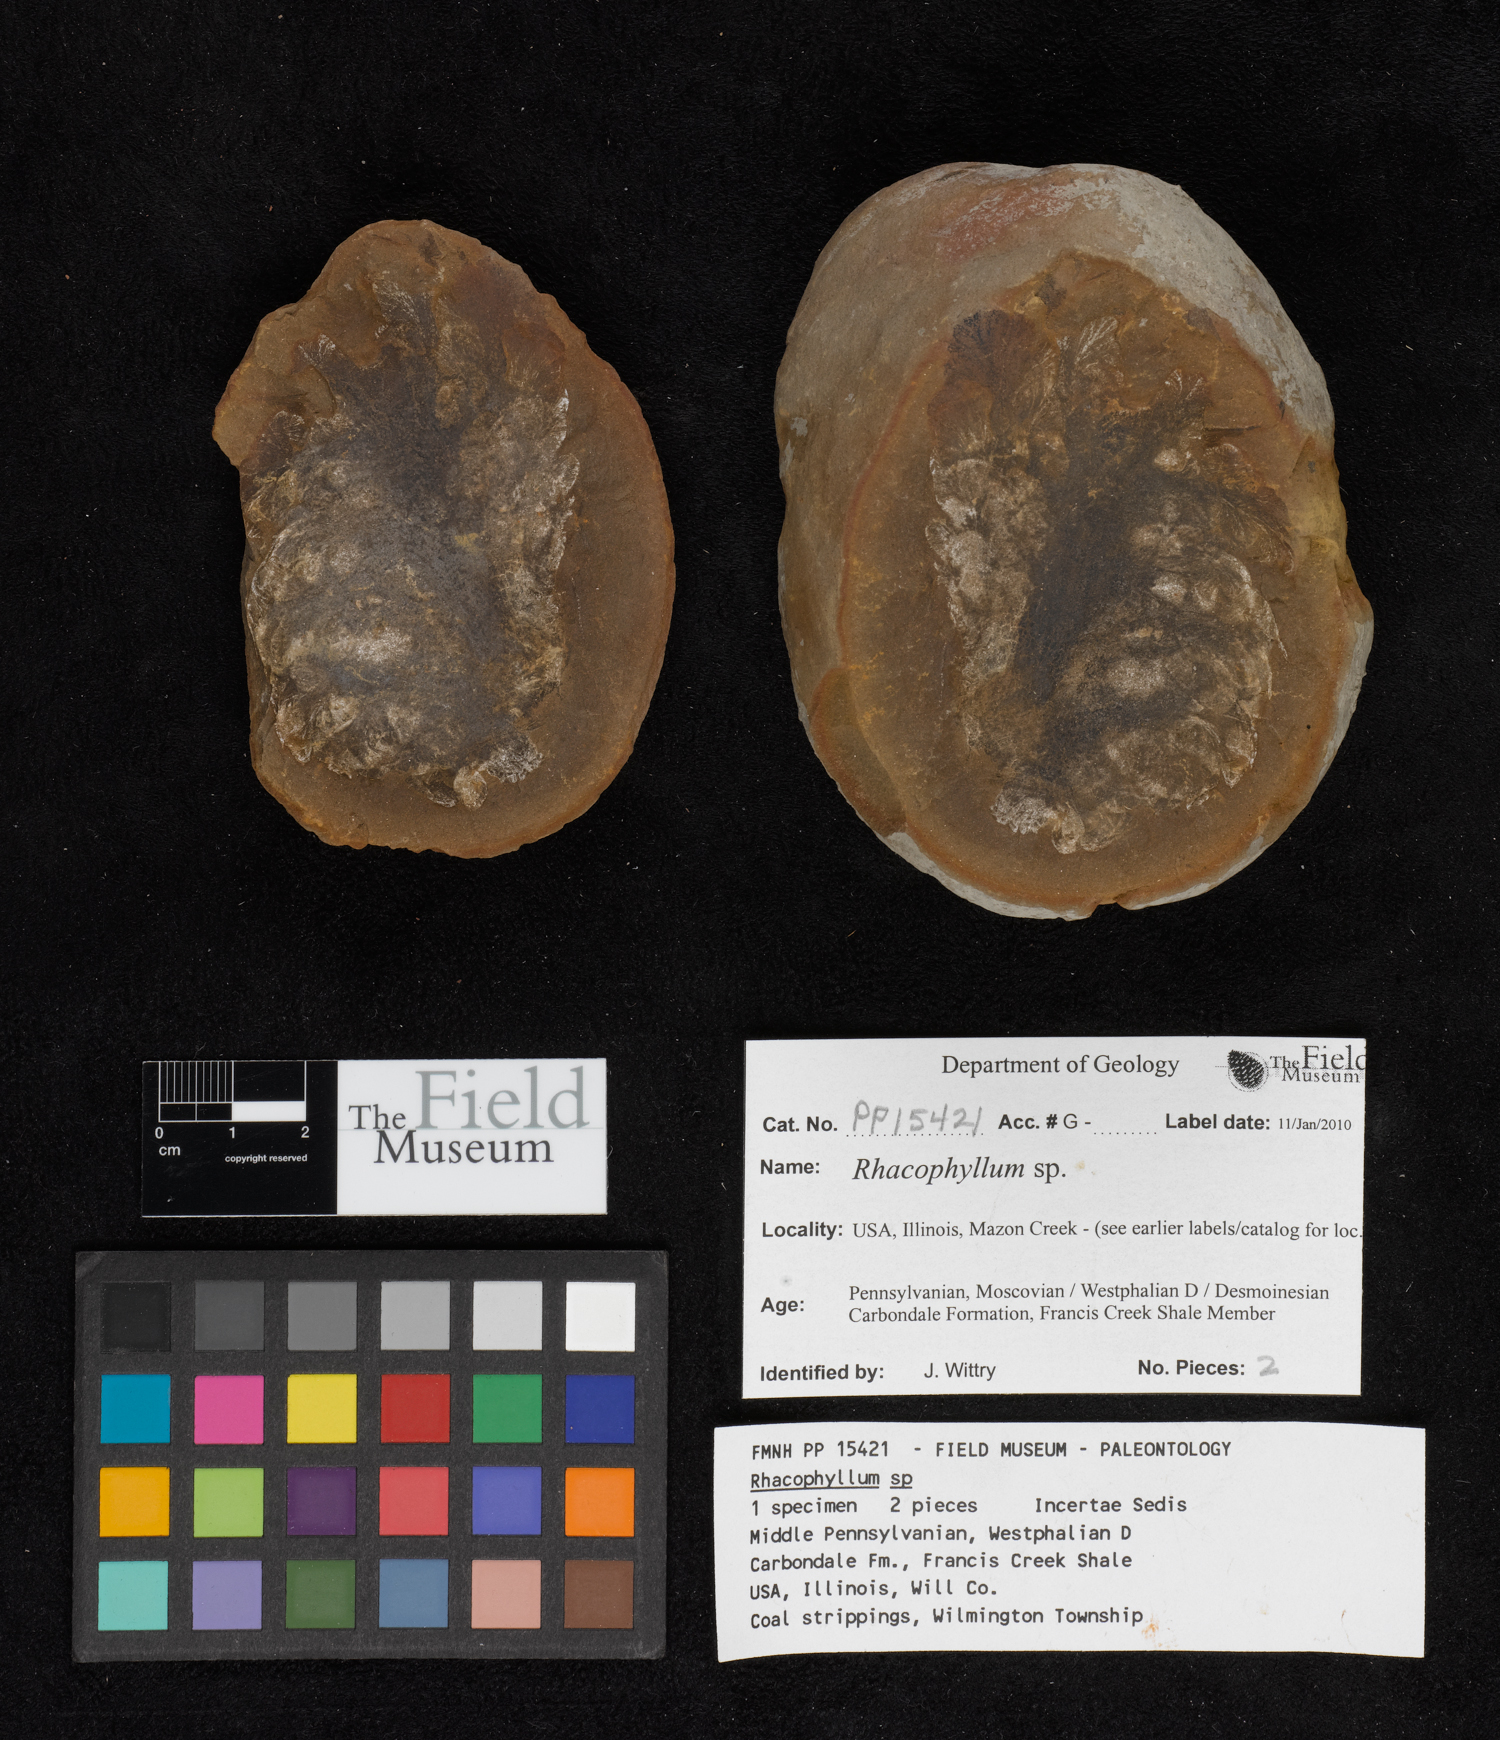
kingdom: Plantae
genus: Rhacophyllum
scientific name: Rhacophyllum
